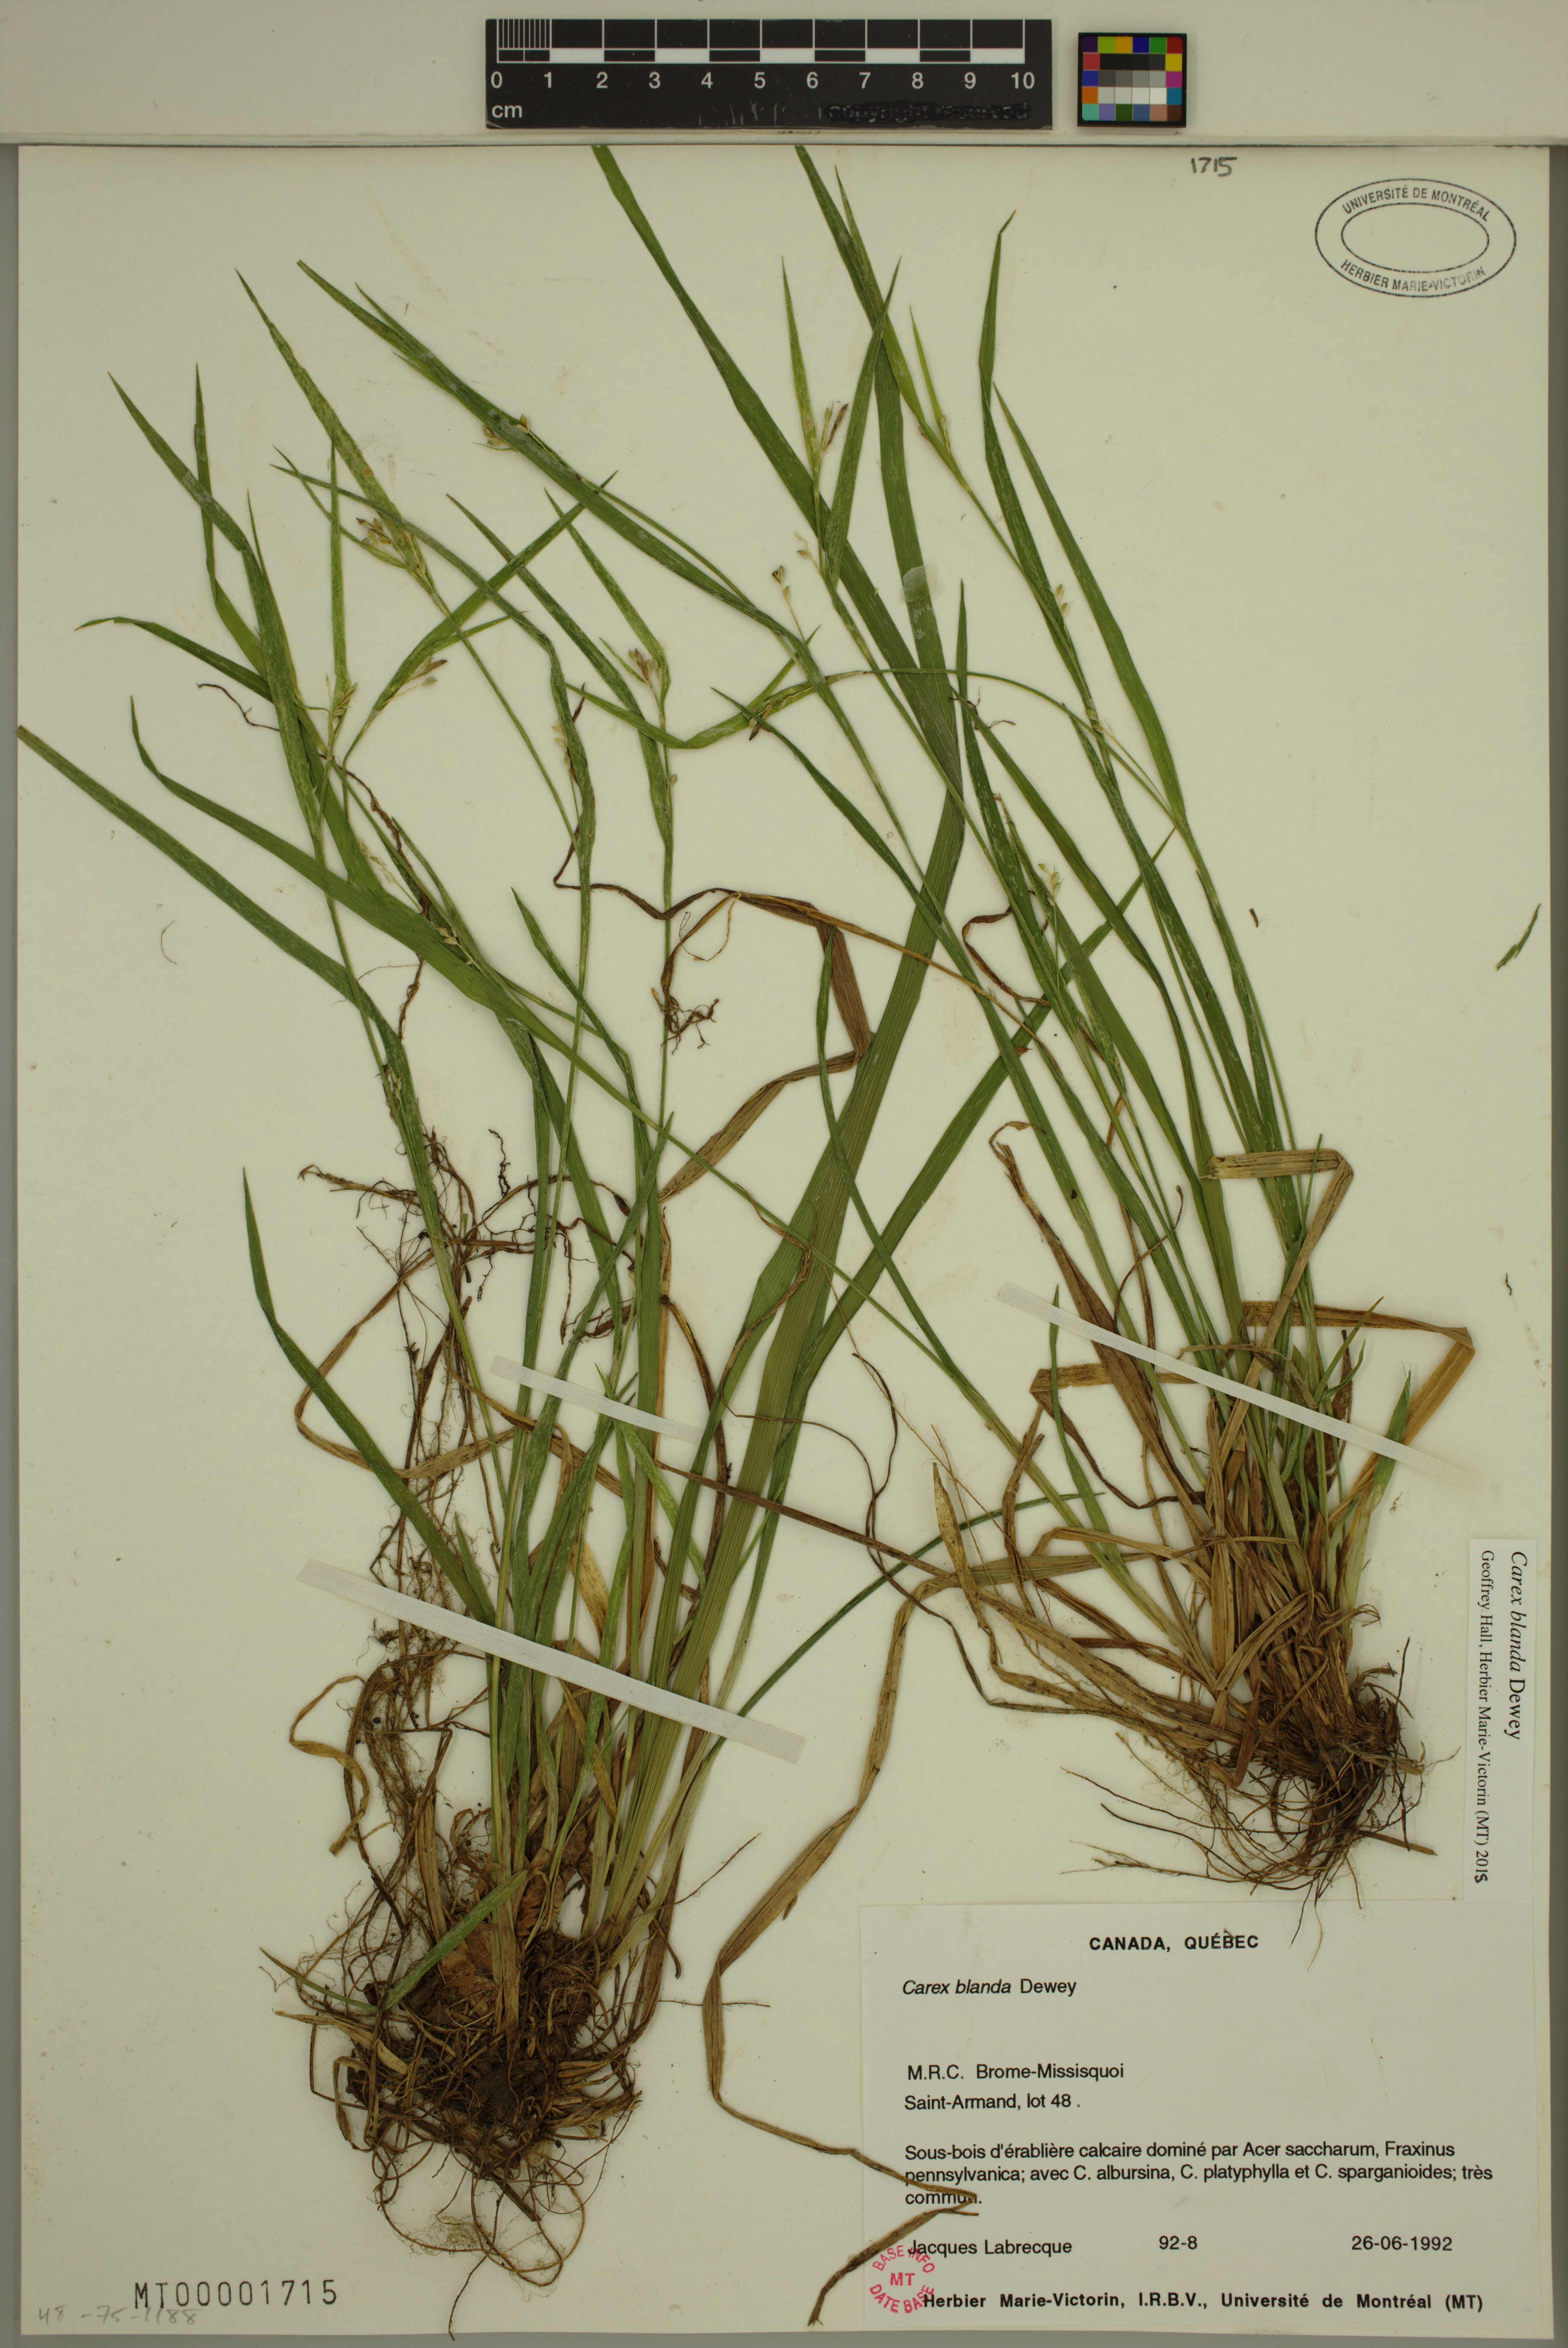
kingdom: Plantae
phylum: Tracheophyta
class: Liliopsida
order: Poales
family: Cyperaceae
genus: Carex
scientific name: Carex blanda
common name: Bland sedge
